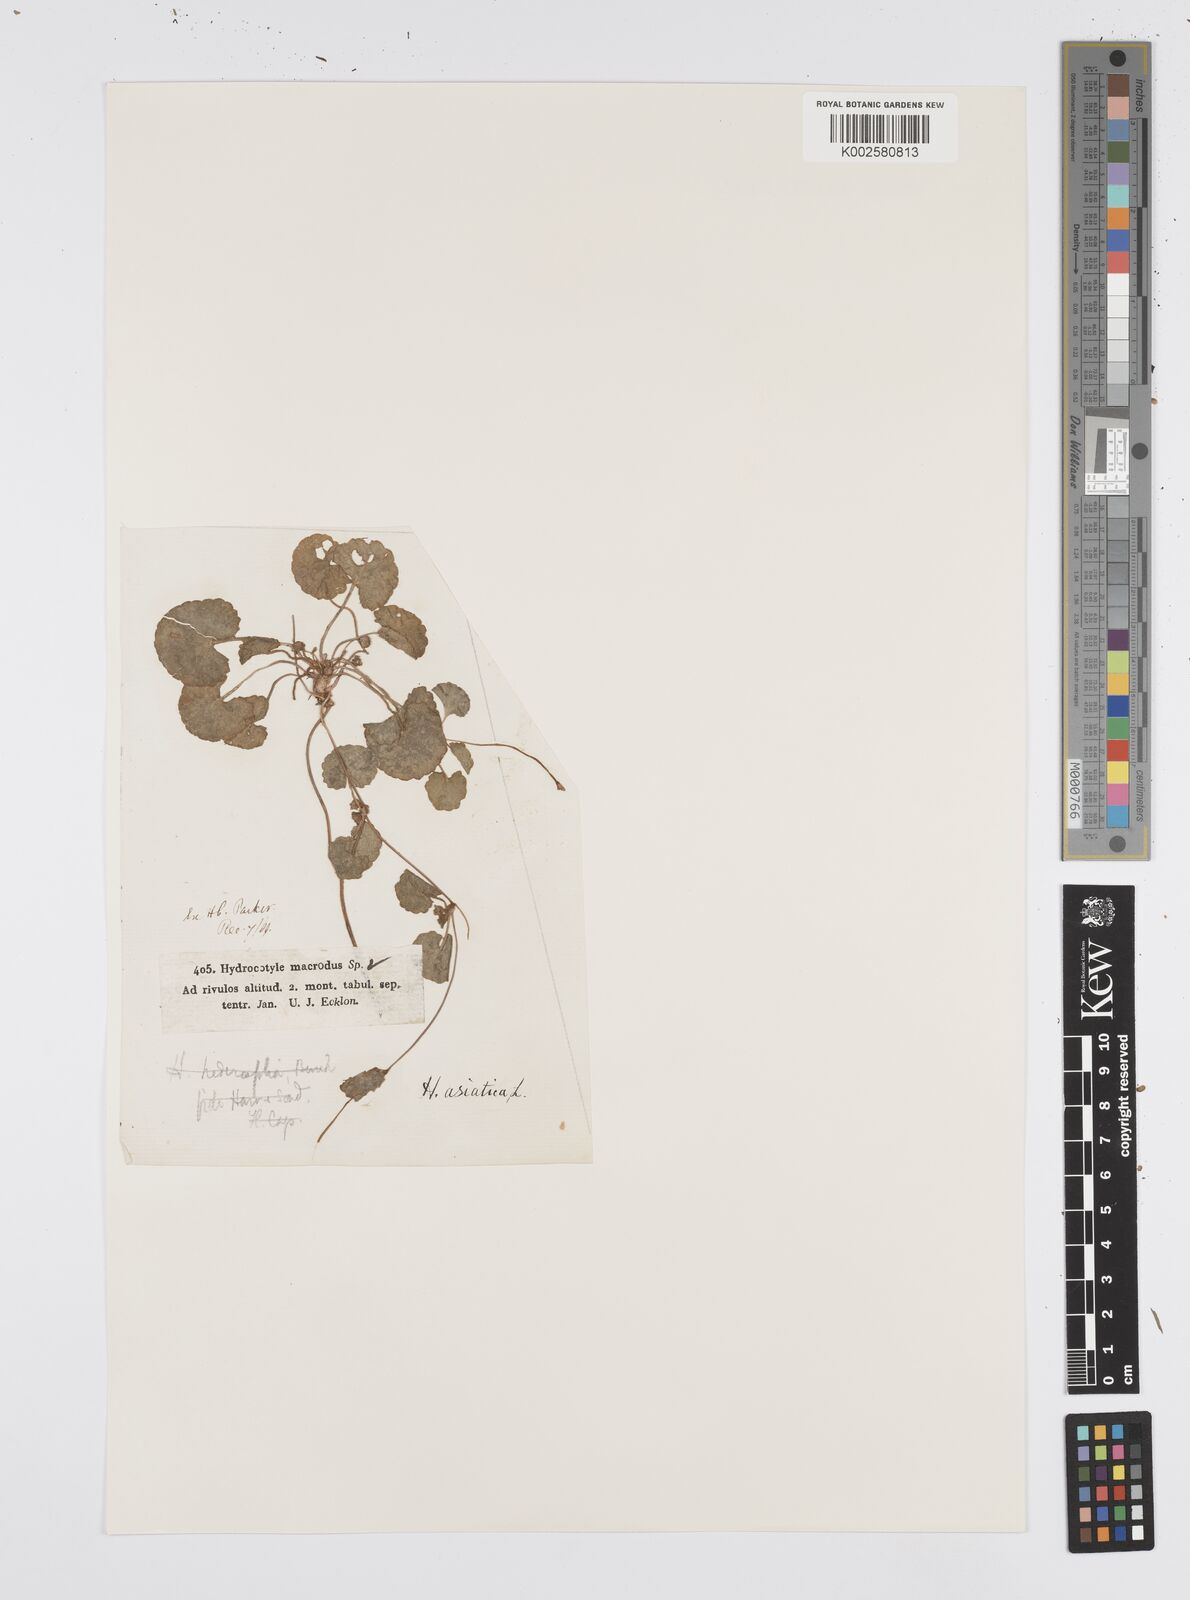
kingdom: Plantae
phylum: Tracheophyta
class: Magnoliopsida
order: Apiales
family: Apiaceae
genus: Centella
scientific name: Centella coriacea
